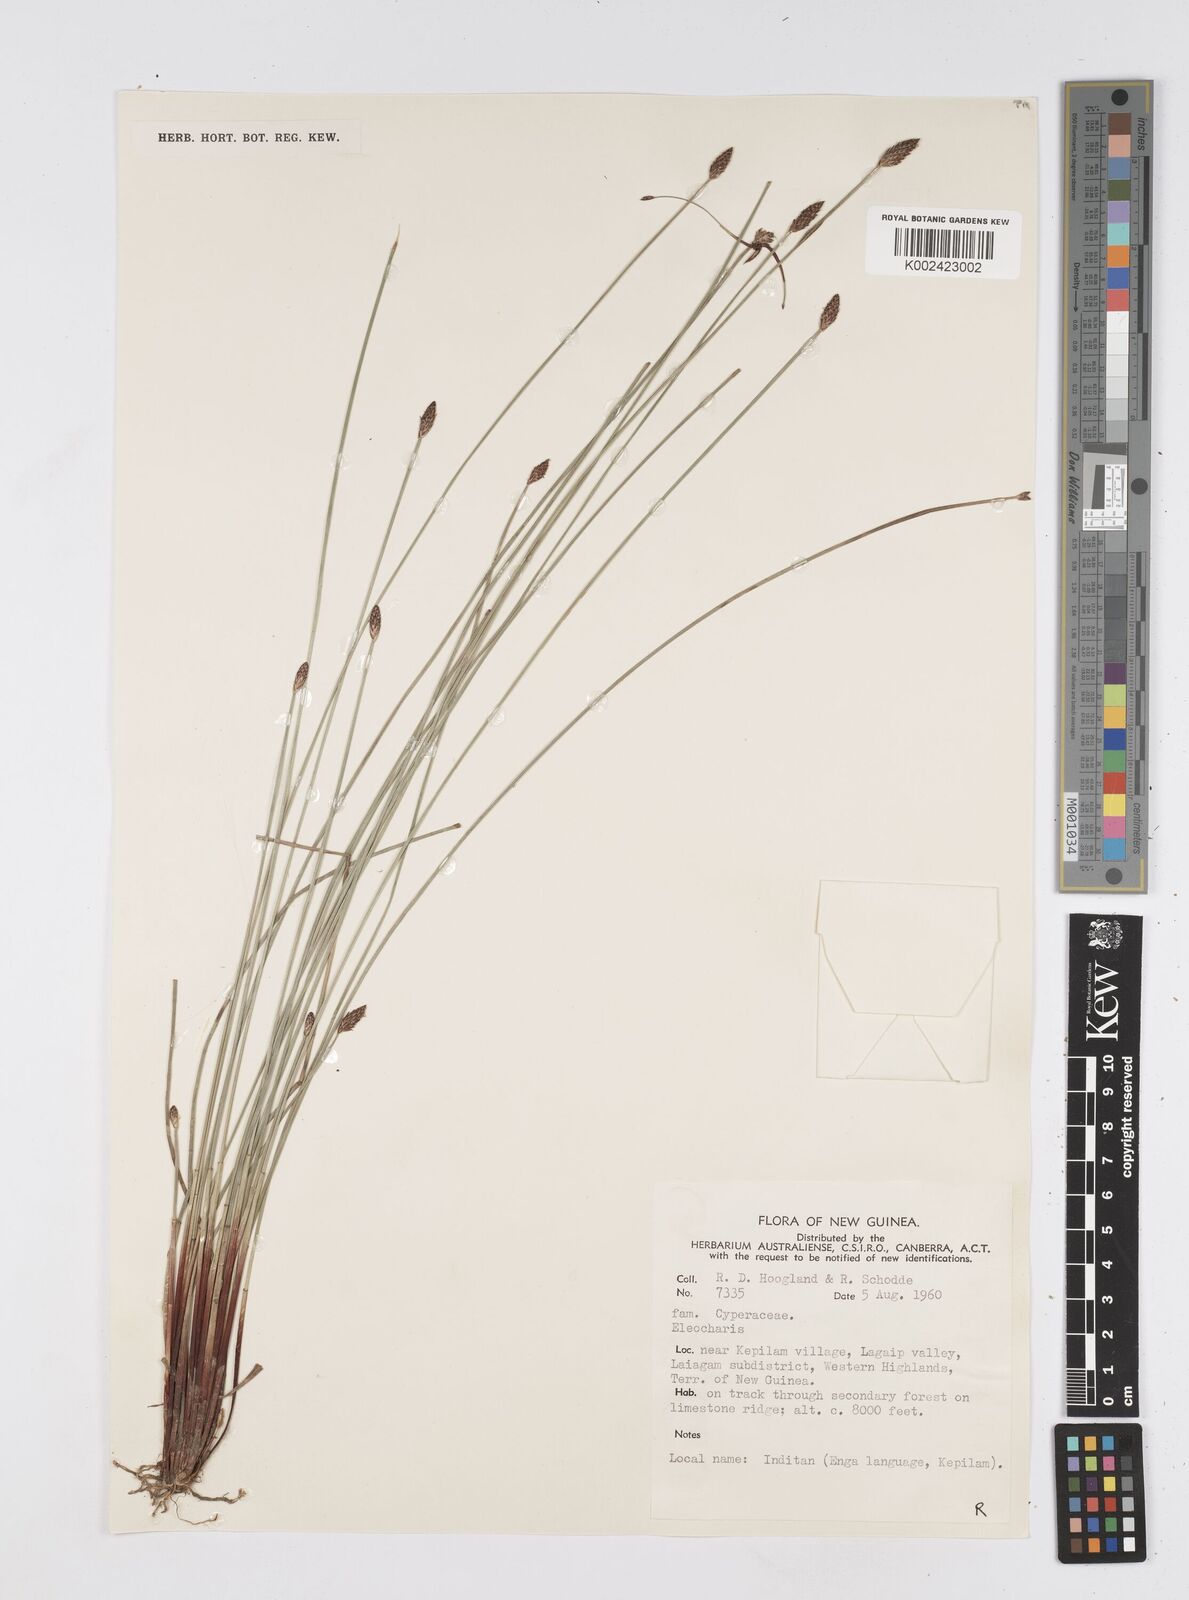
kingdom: Plantae
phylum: Tracheophyta
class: Liliopsida
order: Poales
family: Cyperaceae
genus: Eleocharis
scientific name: Eleocharis tetraquetra
